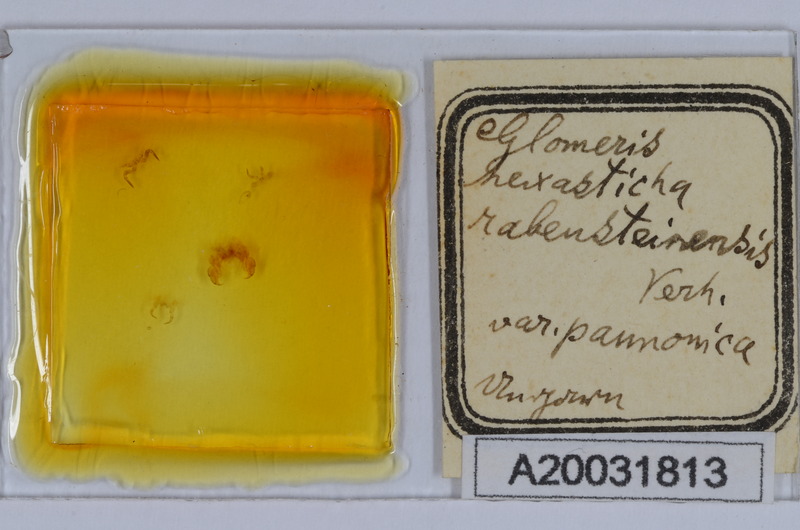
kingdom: Animalia
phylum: Arthropoda
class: Diplopoda
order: Glomerida
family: Glomeridae
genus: Glomeris
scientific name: Glomeris hexasticha
